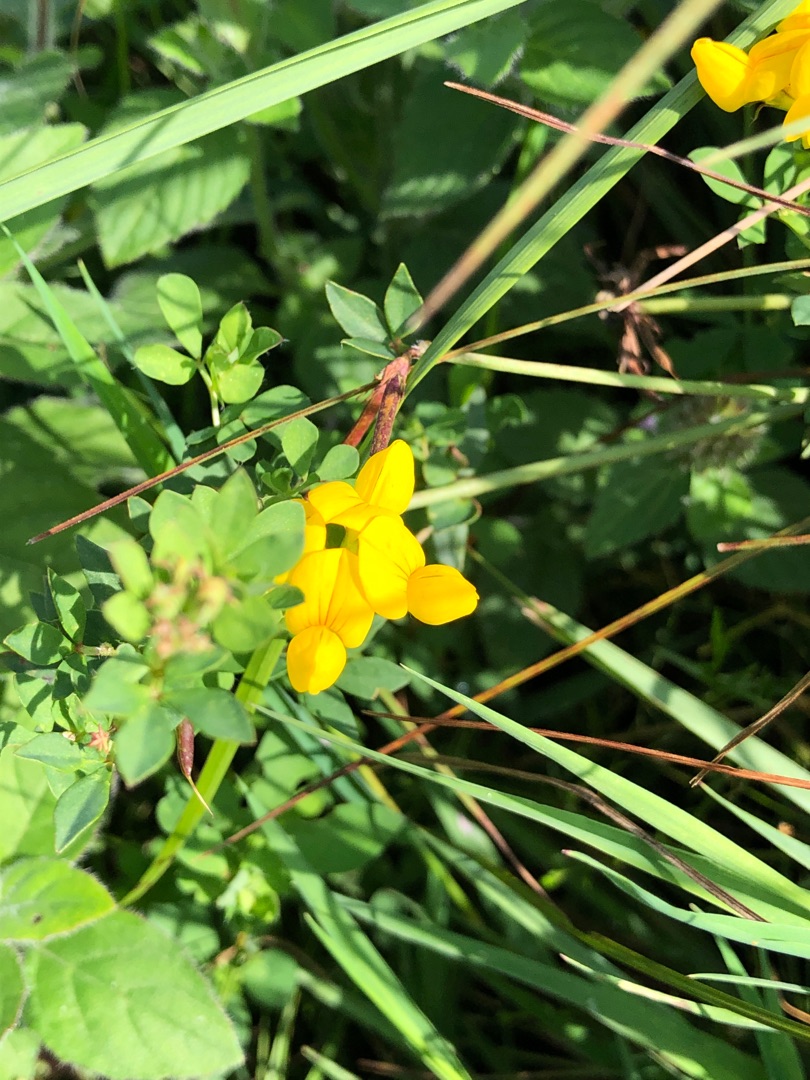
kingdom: Plantae
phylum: Tracheophyta
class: Magnoliopsida
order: Fabales
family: Fabaceae
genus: Lotus
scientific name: Lotus
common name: Kællingetandslægten
